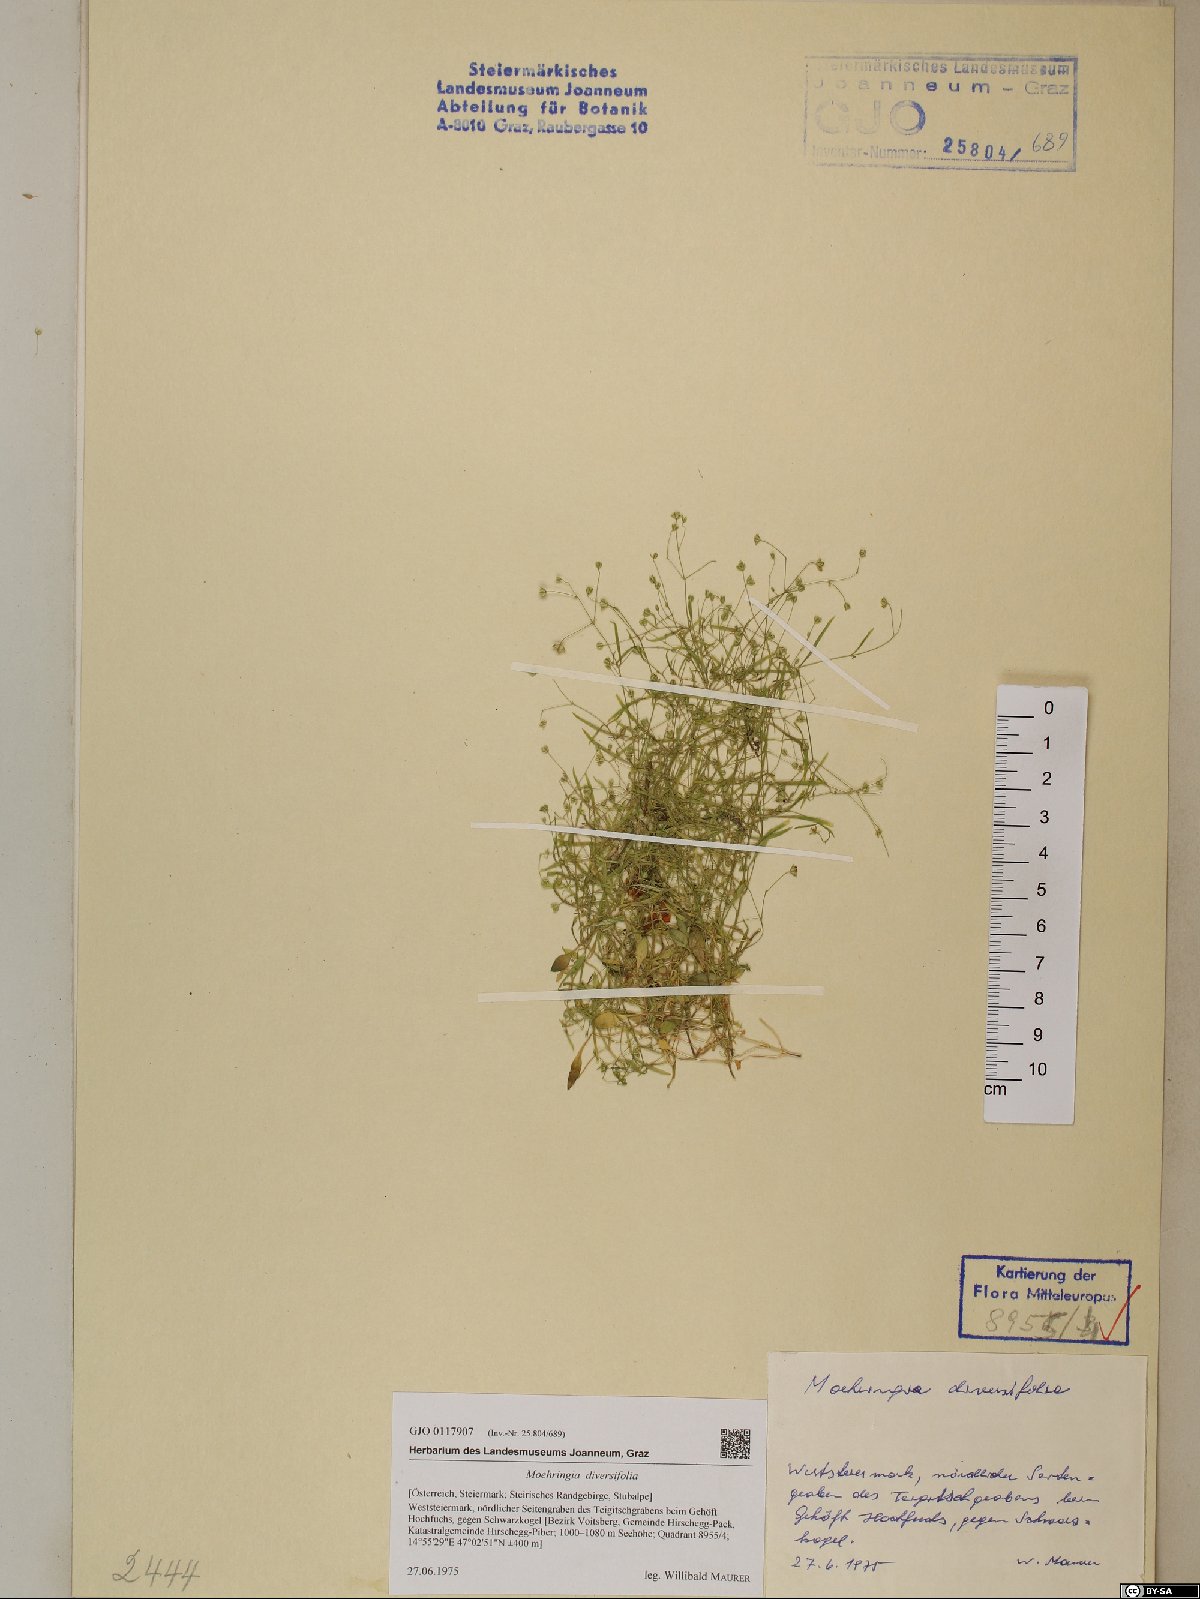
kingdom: Plantae
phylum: Tracheophyta
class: Magnoliopsida
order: Caryophyllales
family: Caryophyllaceae
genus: Moehringia
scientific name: Moehringia diversifolia
